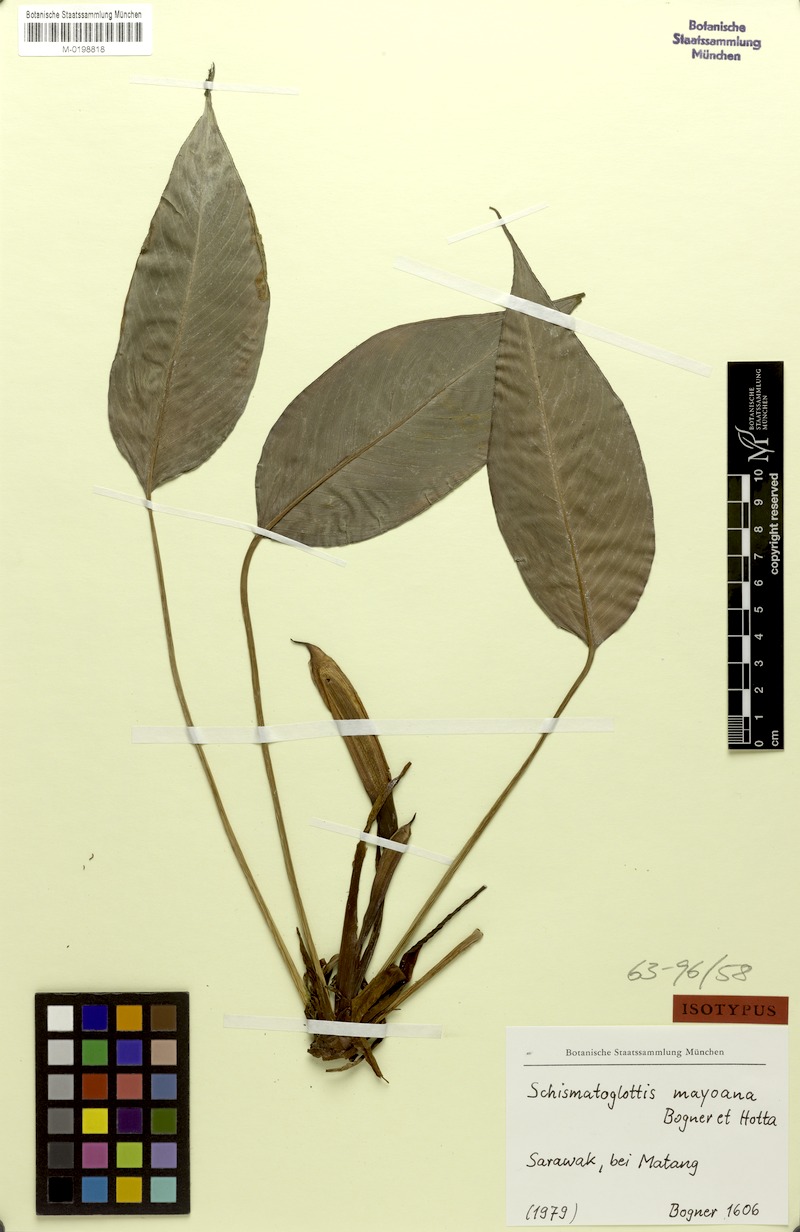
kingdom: Plantae
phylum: Tracheophyta
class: Liliopsida
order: Alismatales
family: Araceae
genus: Schismatoglottis
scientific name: Schismatoglottis mayoana
